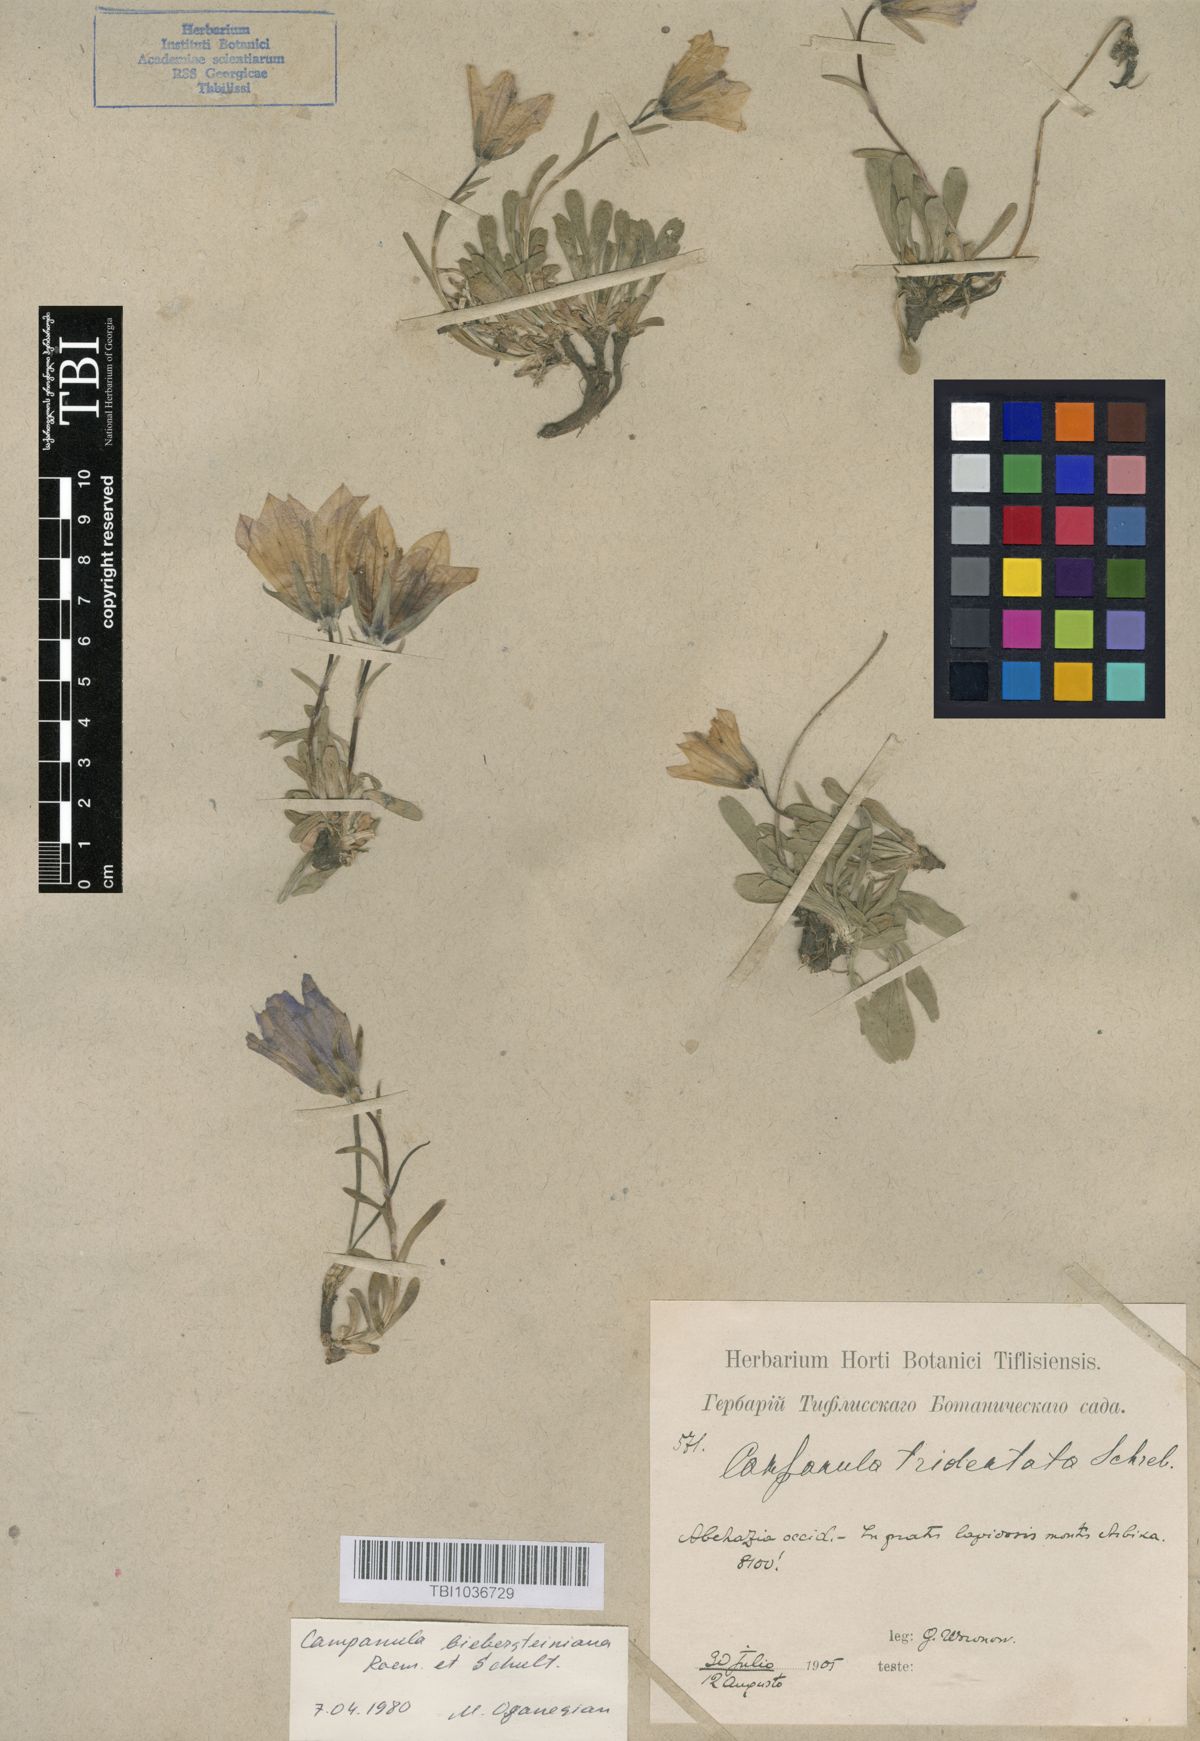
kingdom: Plantae
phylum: Tracheophyta
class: Magnoliopsida
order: Asterales
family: Campanulaceae
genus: Campanula
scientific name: Campanula tridentata
